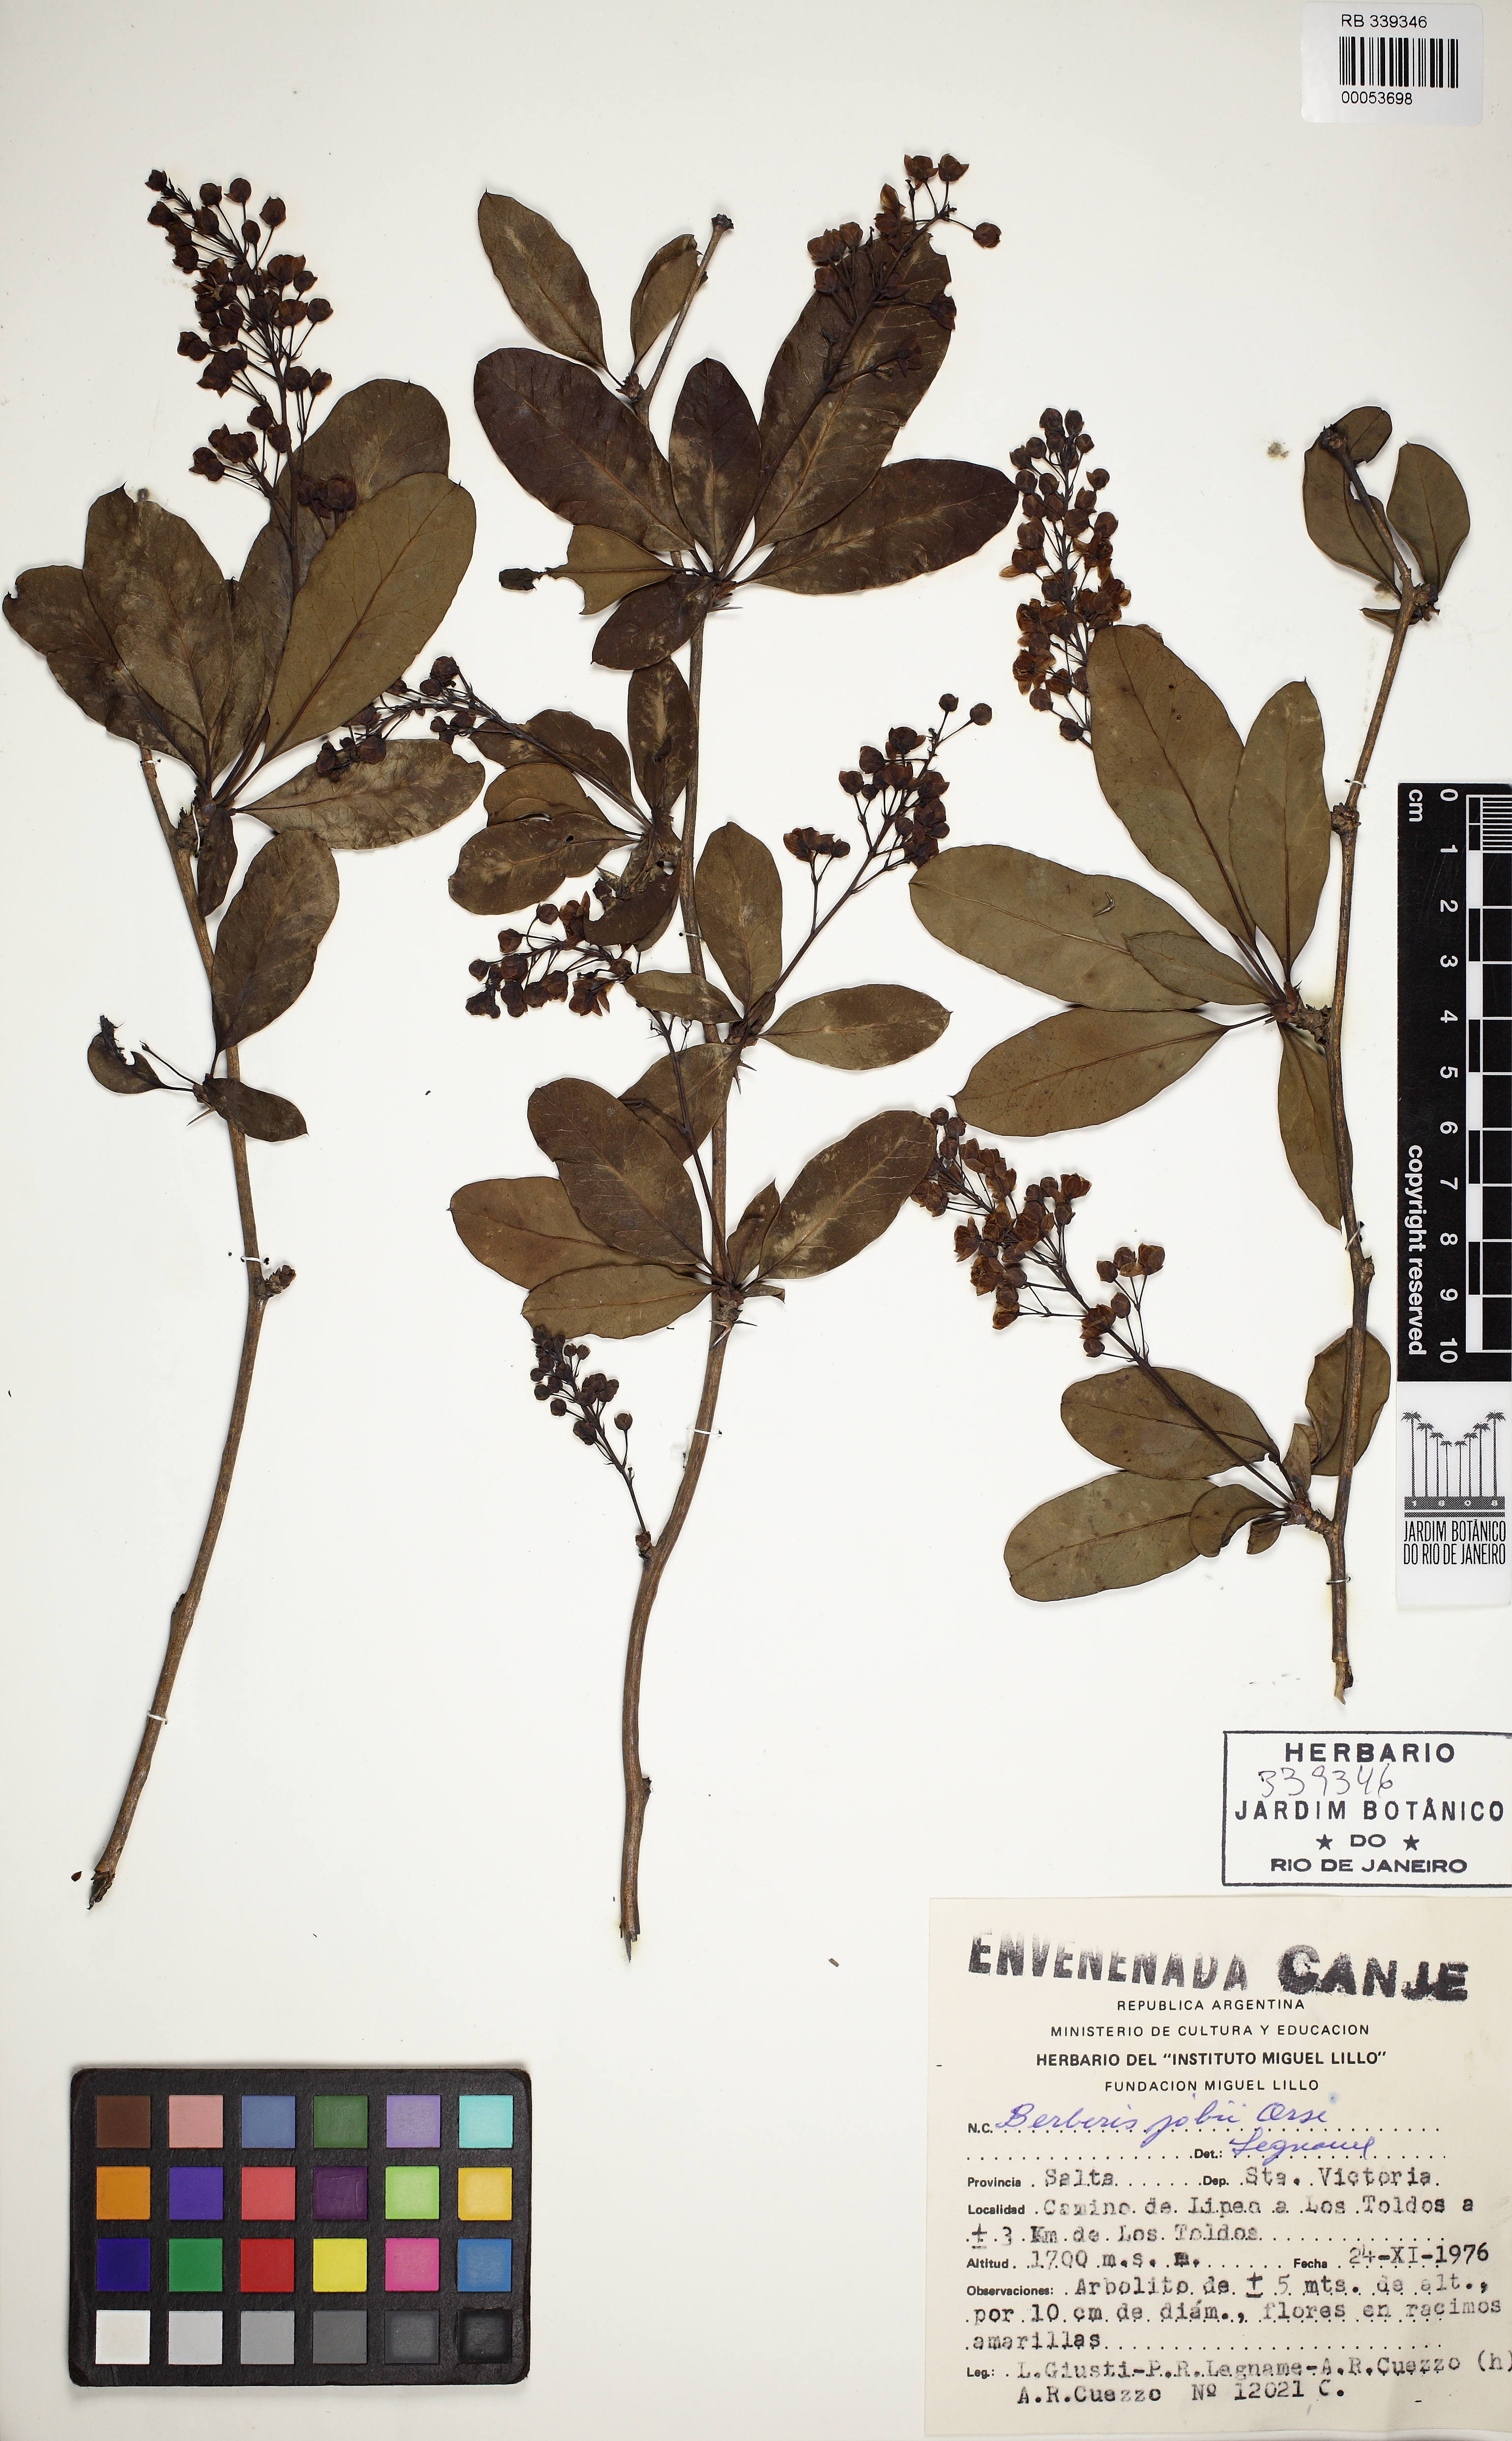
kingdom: Plantae
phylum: Tracheophyta
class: Magnoliopsida
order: Ranunculales
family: Berberidaceae
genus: Berberis
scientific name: Berberis jobii
